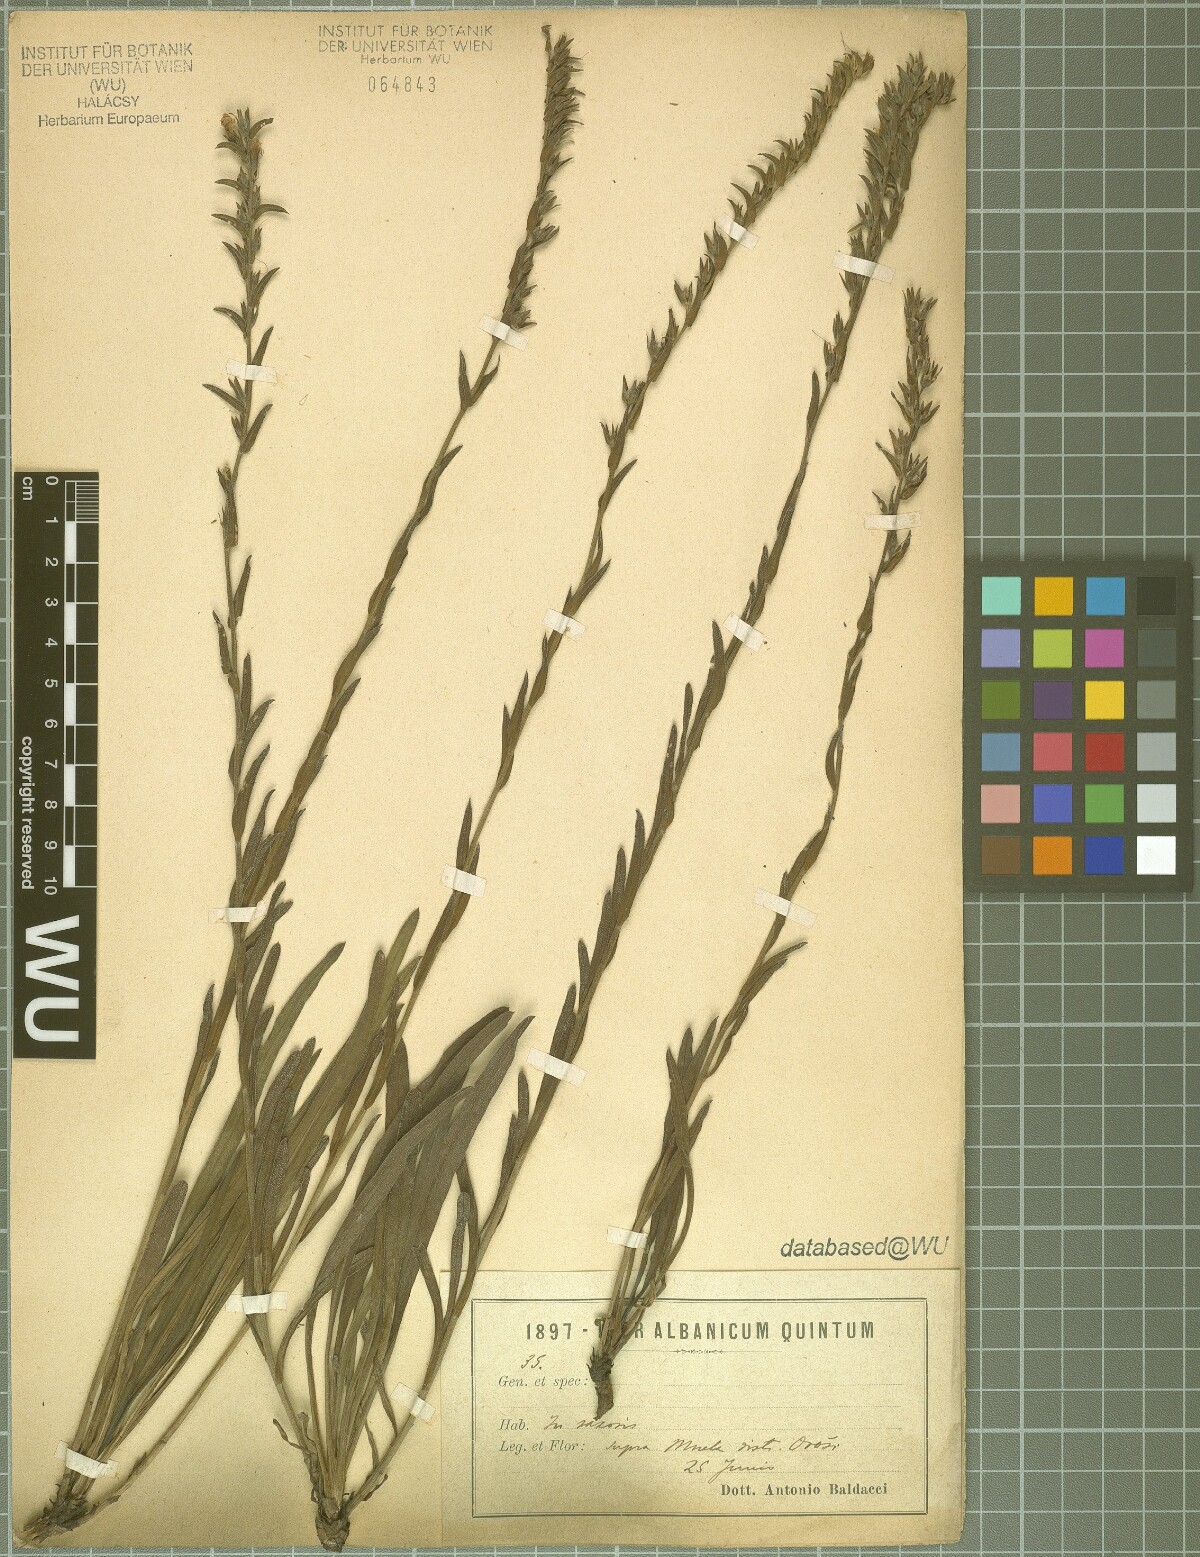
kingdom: Plantae
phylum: Tracheophyta
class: Magnoliopsida
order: Boraginales
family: Boraginaceae
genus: Halacsya
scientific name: Halacsya sendtneri
